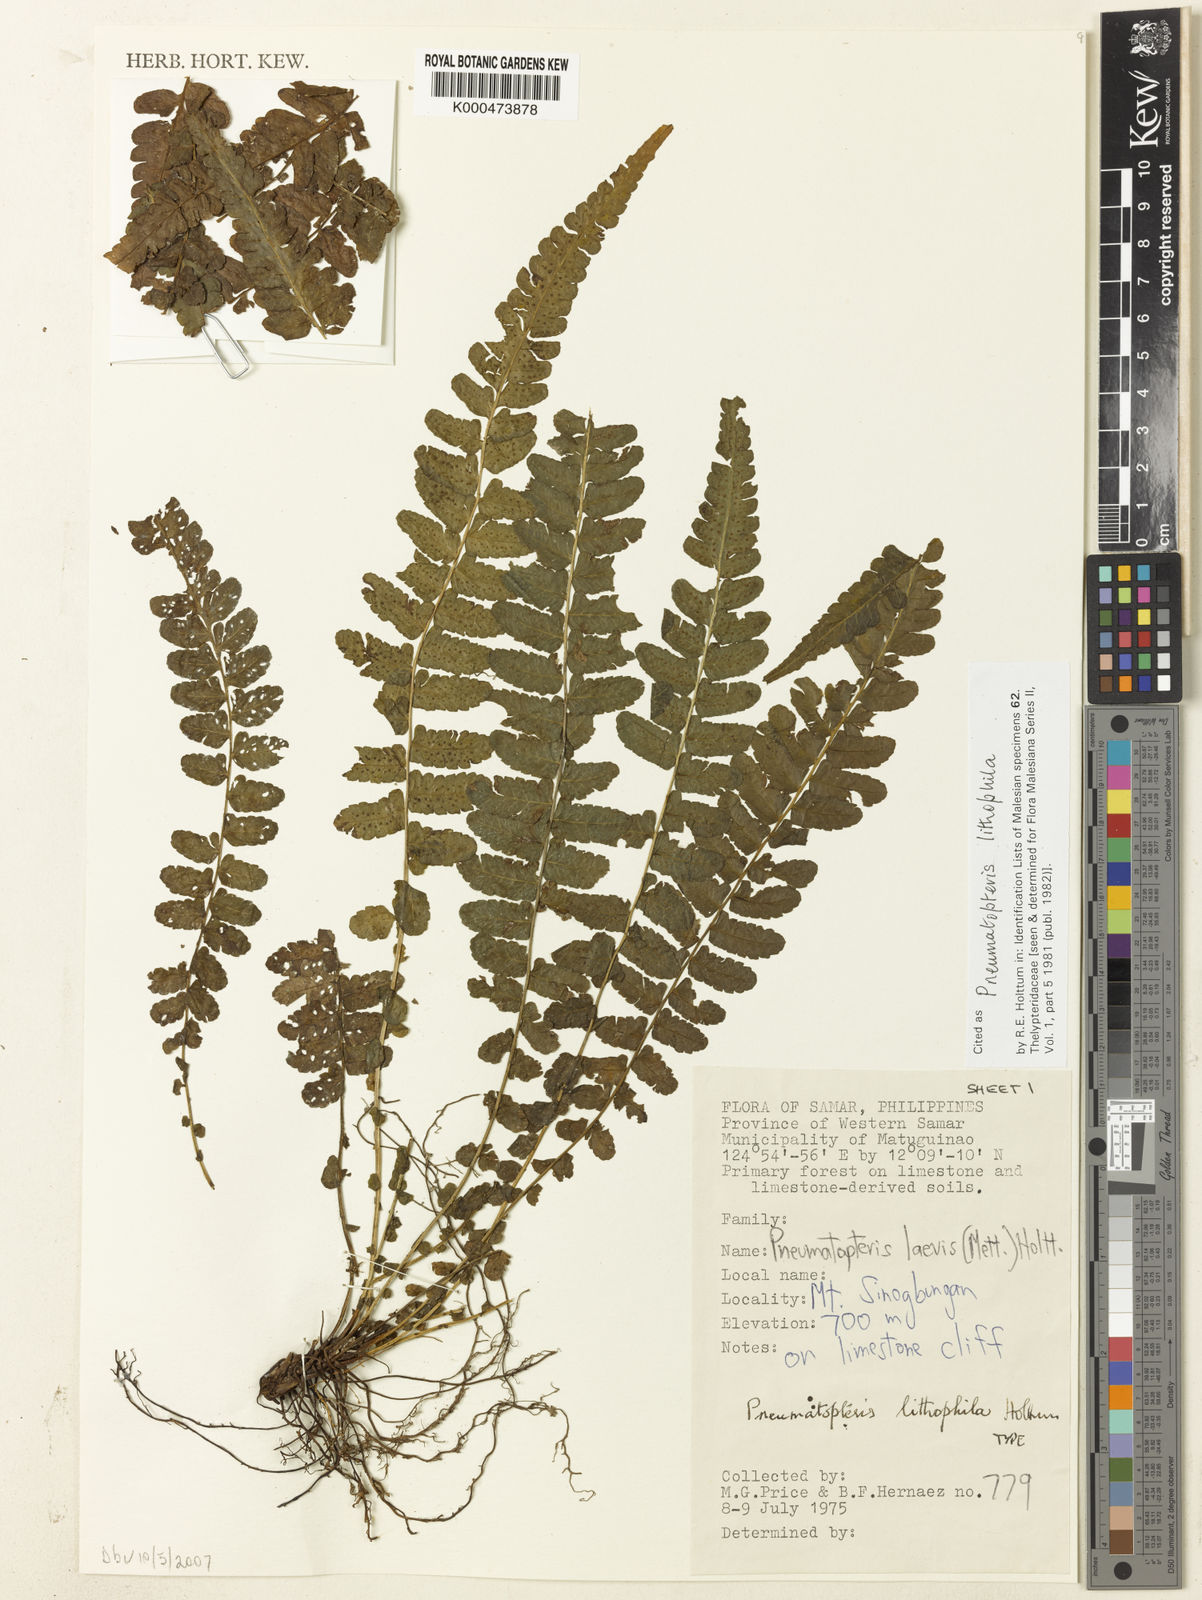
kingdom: Plantae
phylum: Tracheophyta
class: Polypodiopsida
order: Polypodiales
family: Thelypteridaceae
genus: Pneumatopteris
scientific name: Pneumatopteris lithophila
